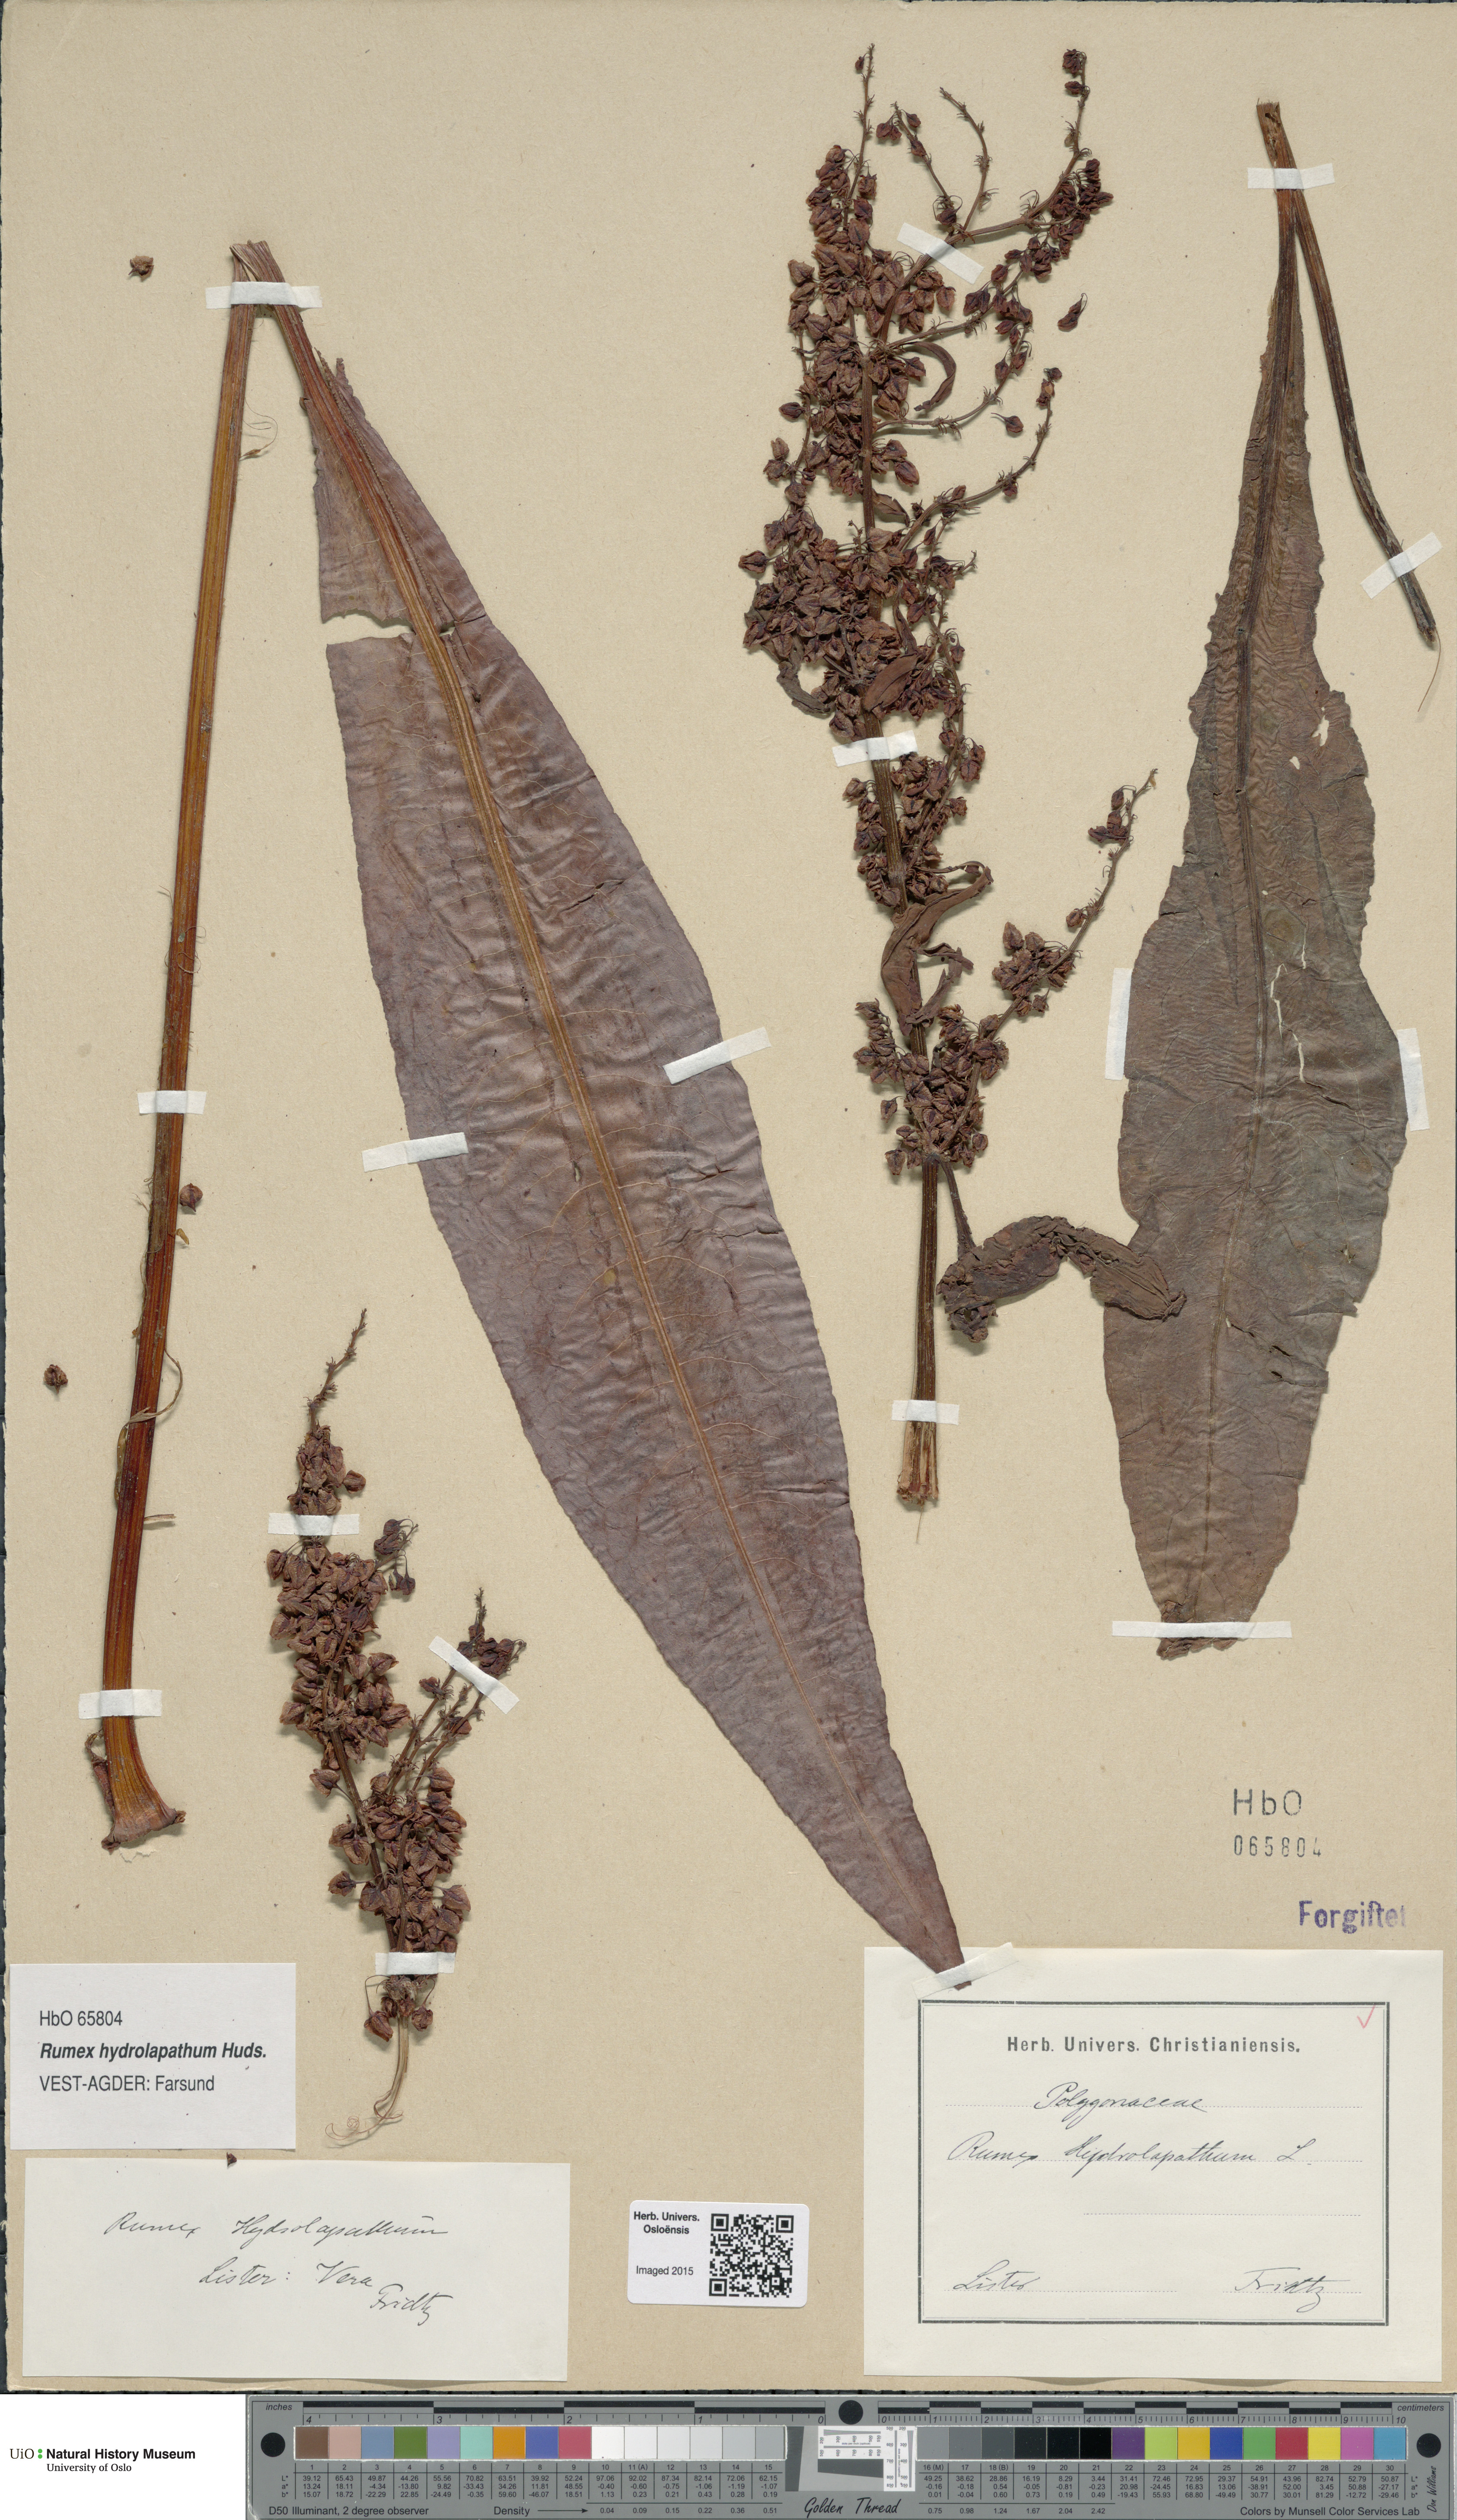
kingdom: Plantae
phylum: Tracheophyta
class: Magnoliopsida
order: Caryophyllales
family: Polygonaceae
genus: Rumex
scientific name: Rumex hydrolapathum
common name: Water dock
